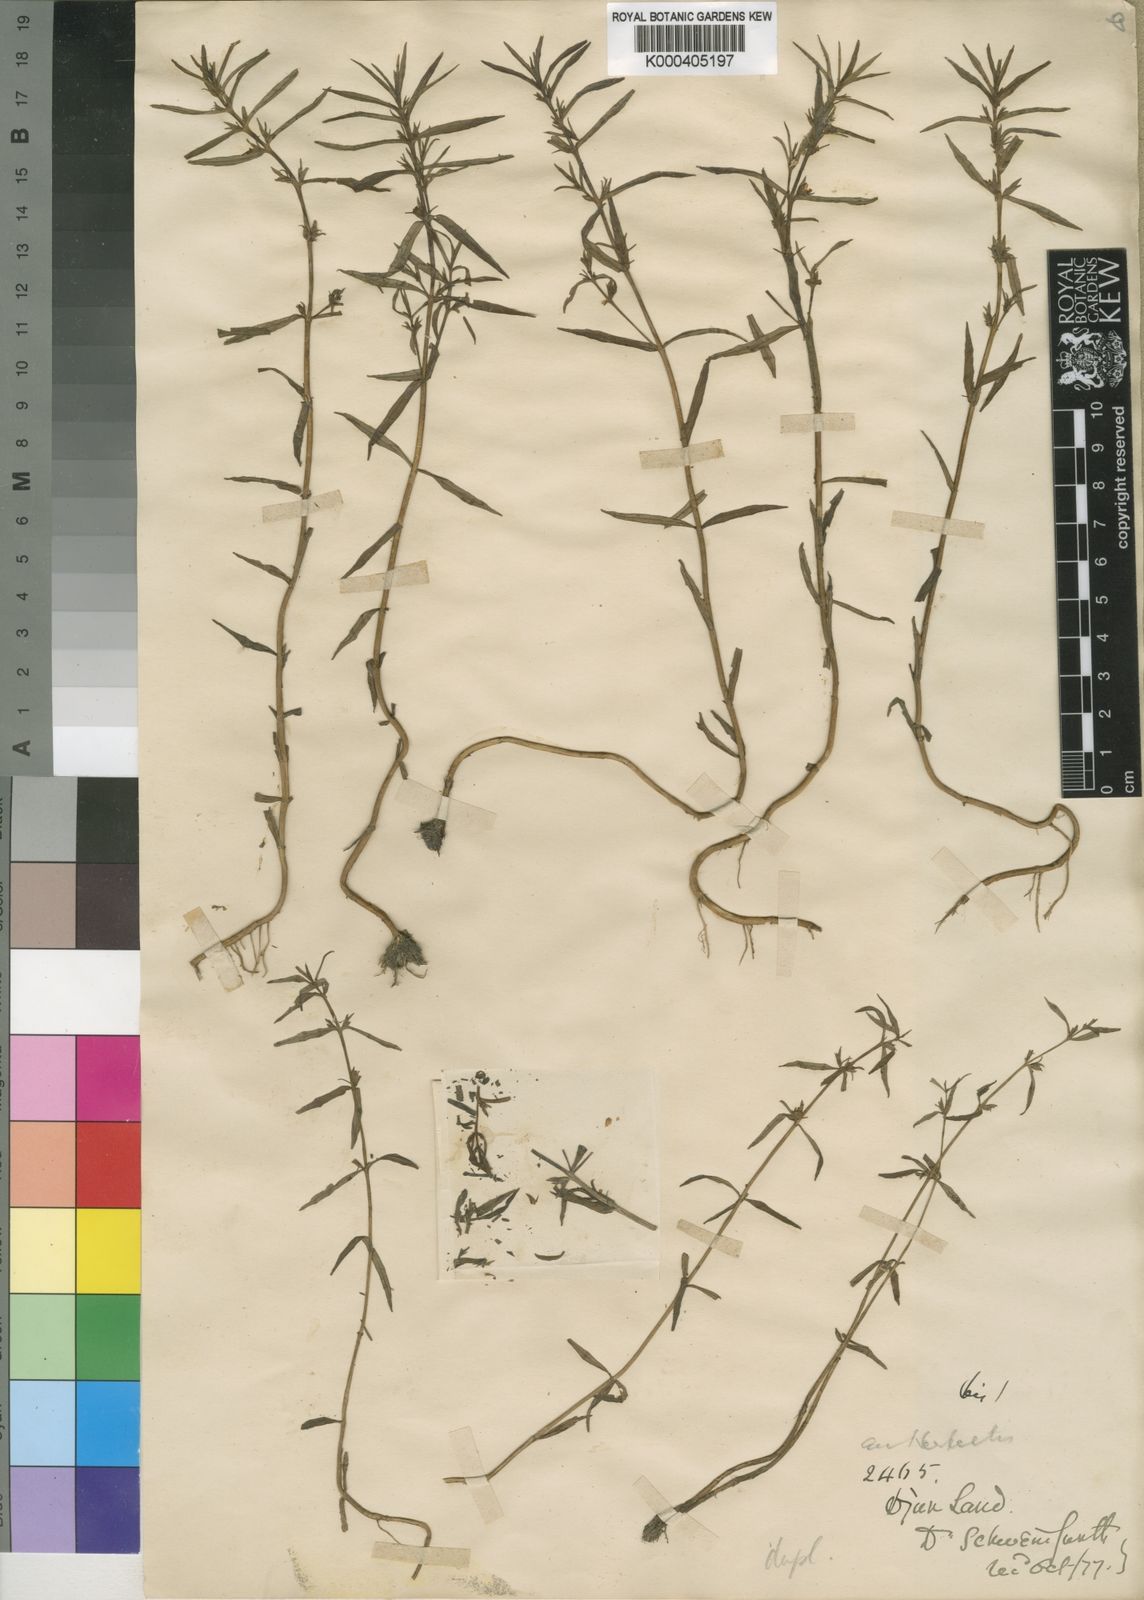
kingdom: Plantae
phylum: Tracheophyta
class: Magnoliopsida
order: Lamiales
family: Plantaginaceae
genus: Bacopa
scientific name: Bacopa punctata
